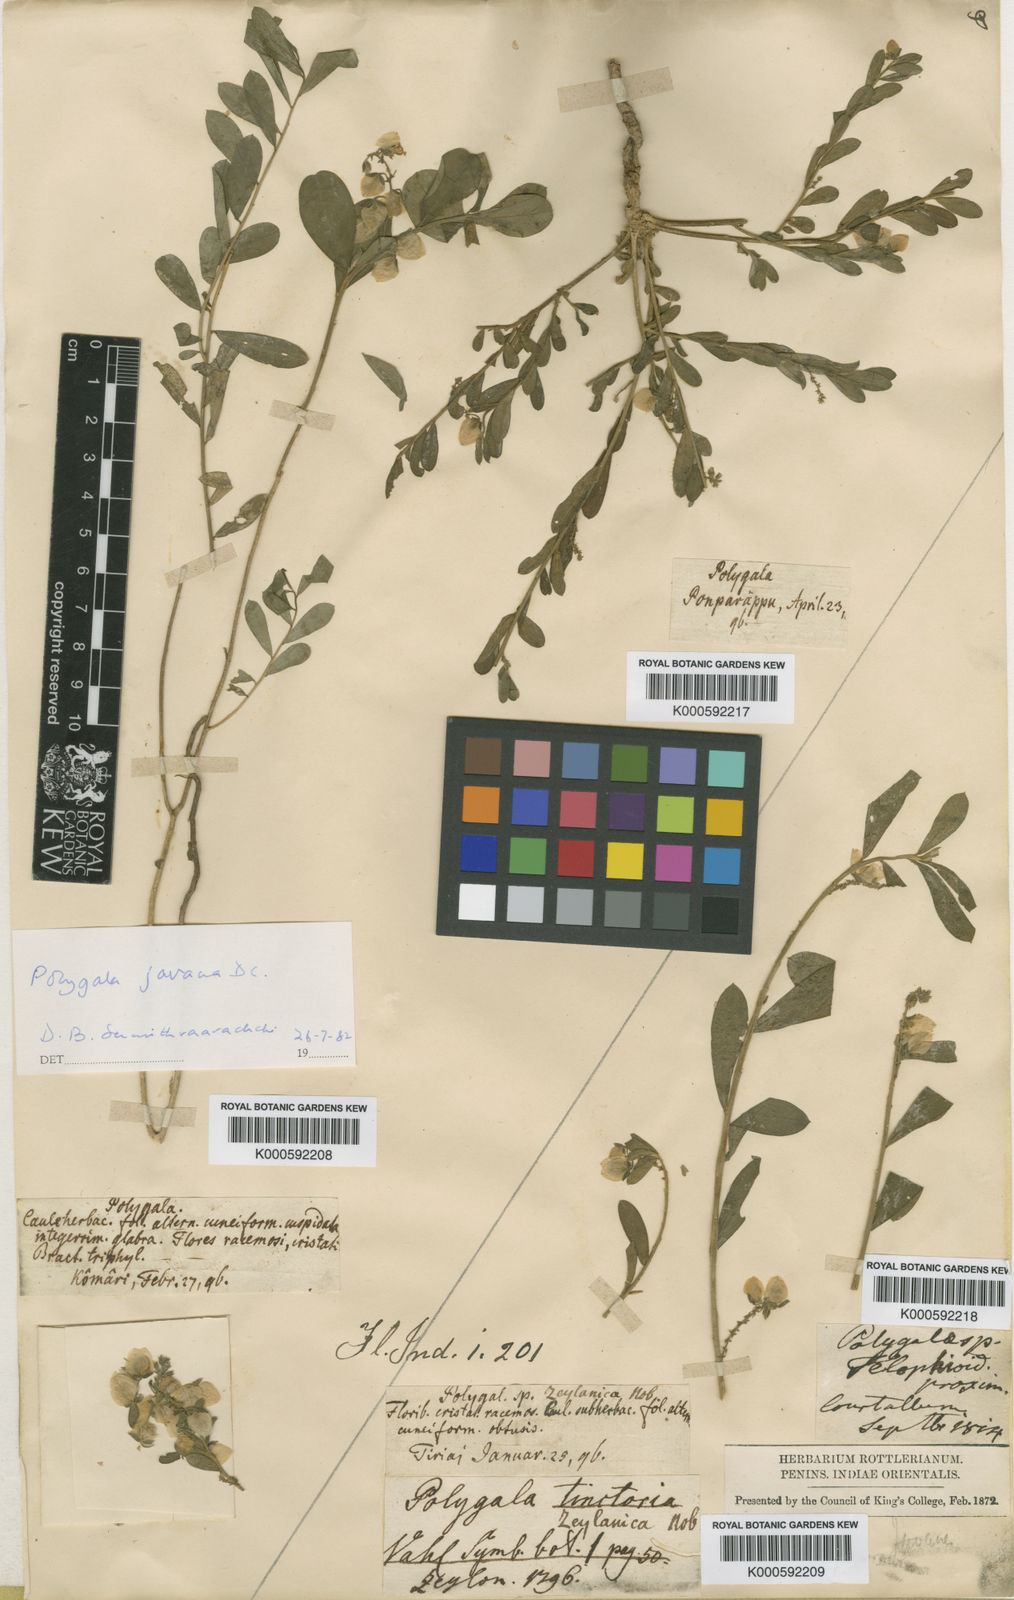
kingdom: Plantae
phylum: Tracheophyta
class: Magnoliopsida
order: Fabales
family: Polygalaceae
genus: Polygala
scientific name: Polygala javana
